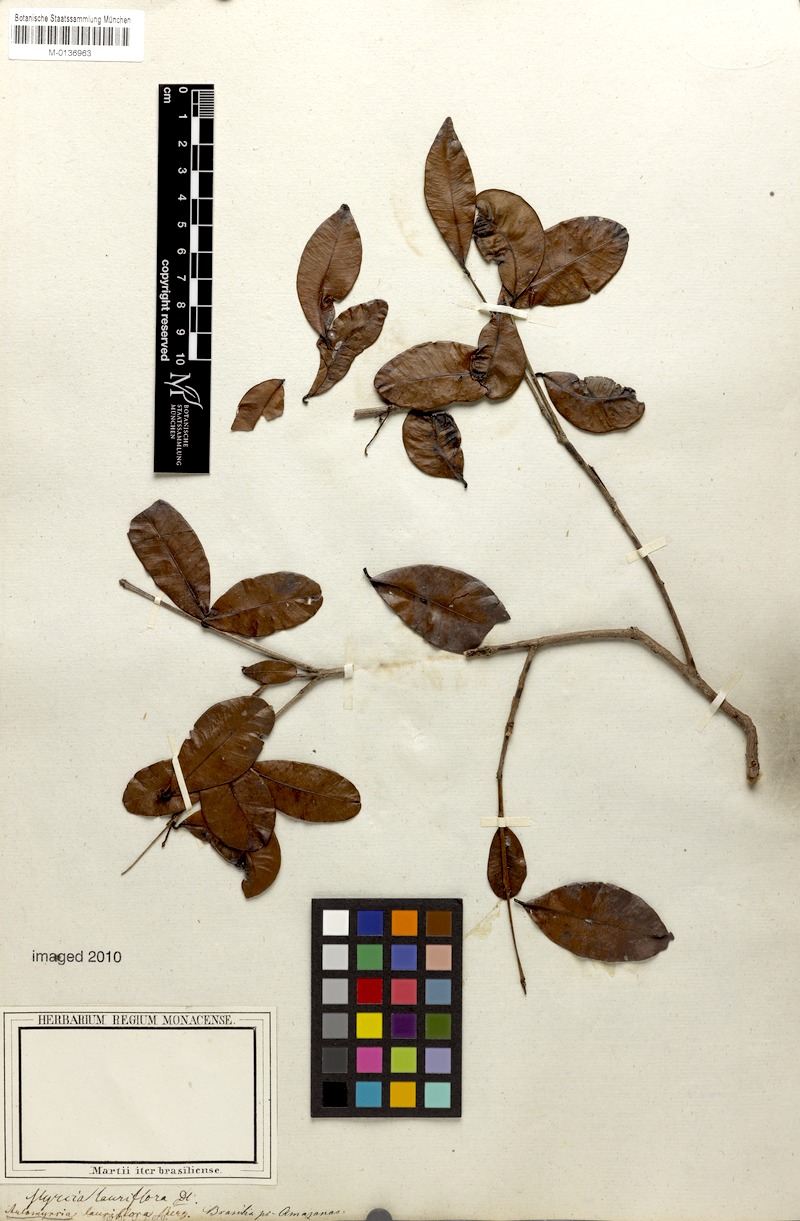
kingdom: Plantae
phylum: Tracheophyta
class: Magnoliopsida
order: Myrtales
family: Myrtaceae
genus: Myrcia
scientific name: Myrcia guianensis
